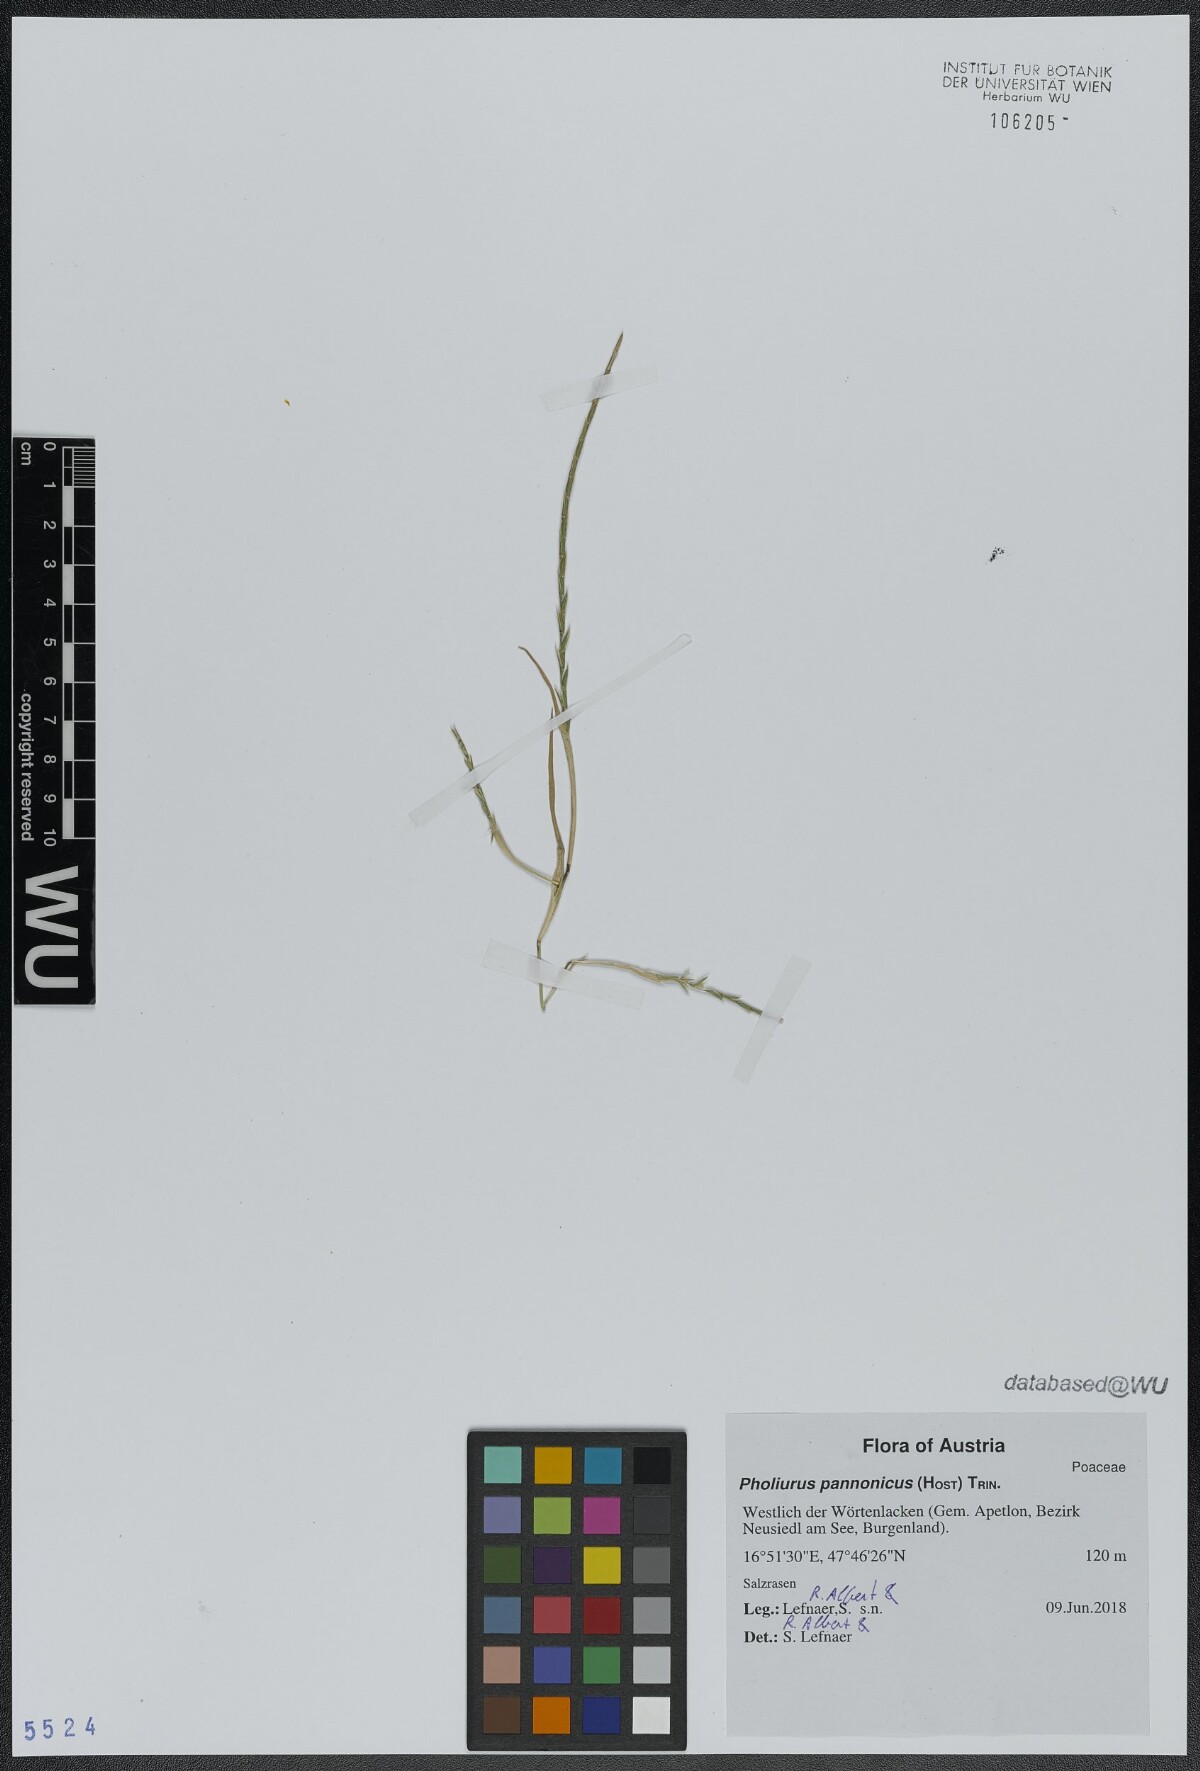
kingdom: Plantae
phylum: Tracheophyta
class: Liliopsida
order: Poales
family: Poaceae
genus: Pholiurus
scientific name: Pholiurus pannonicus
